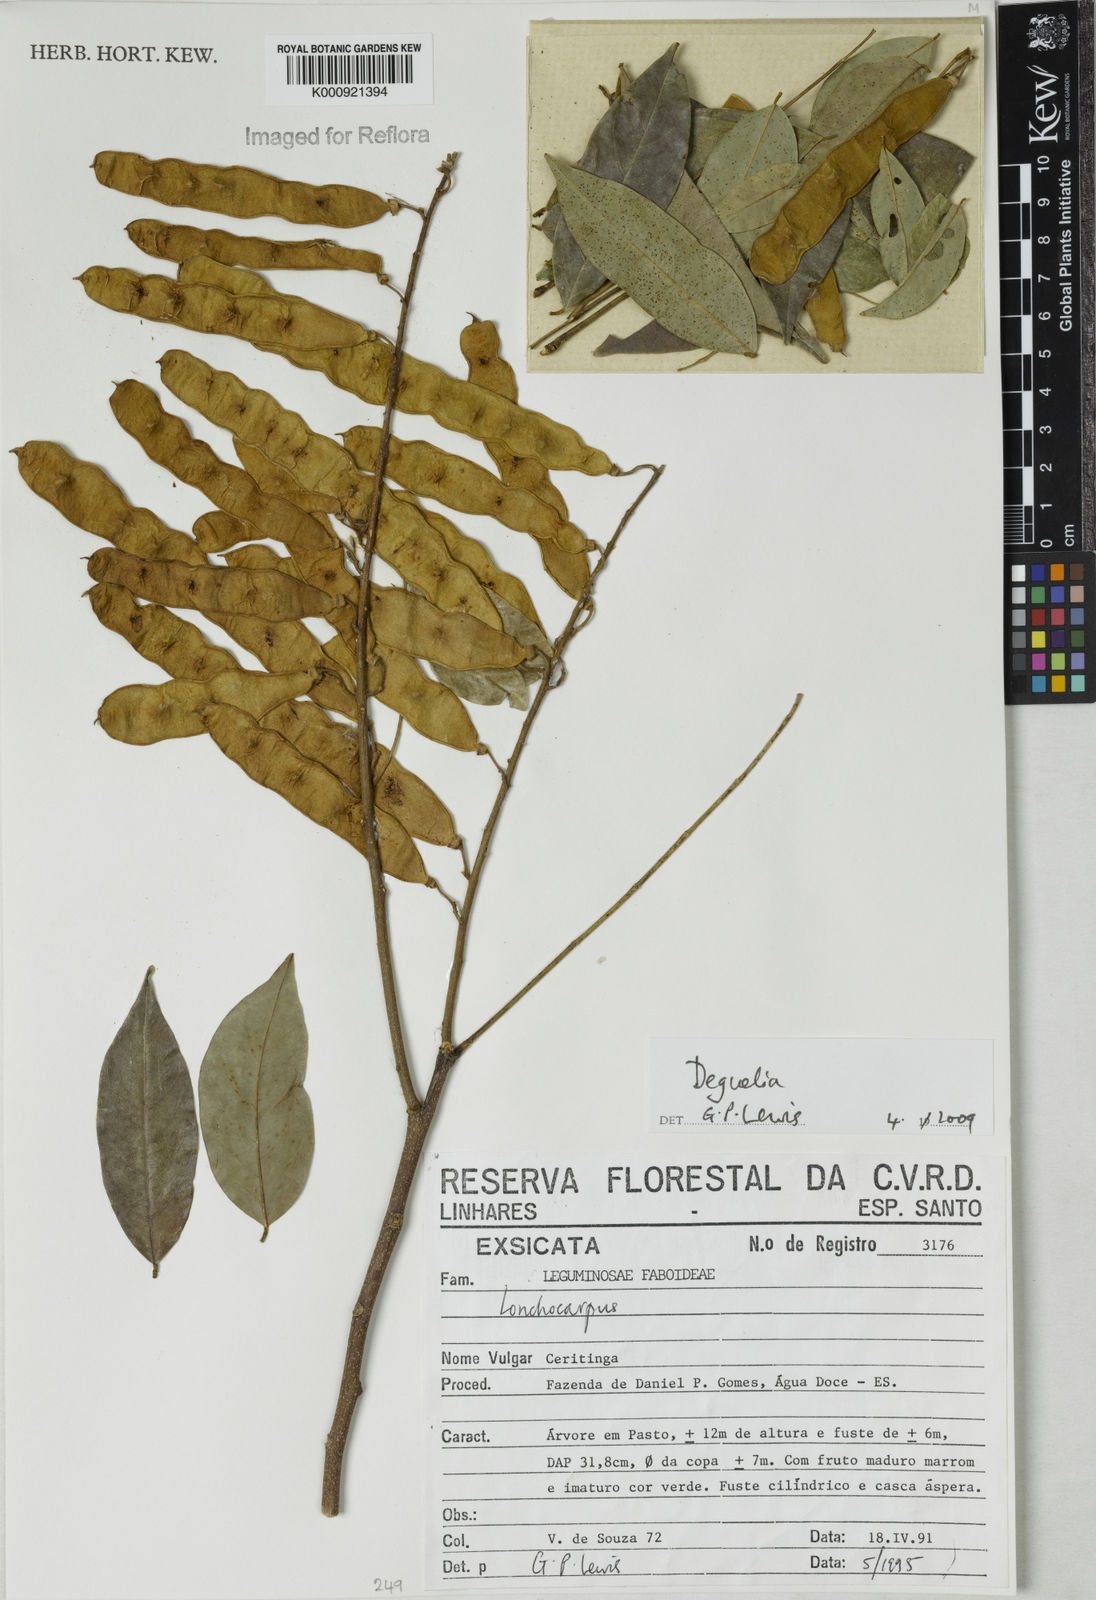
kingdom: Plantae
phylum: Tracheophyta
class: Magnoliopsida
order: Fabales
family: Fabaceae
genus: Deguelia
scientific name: Deguelia
